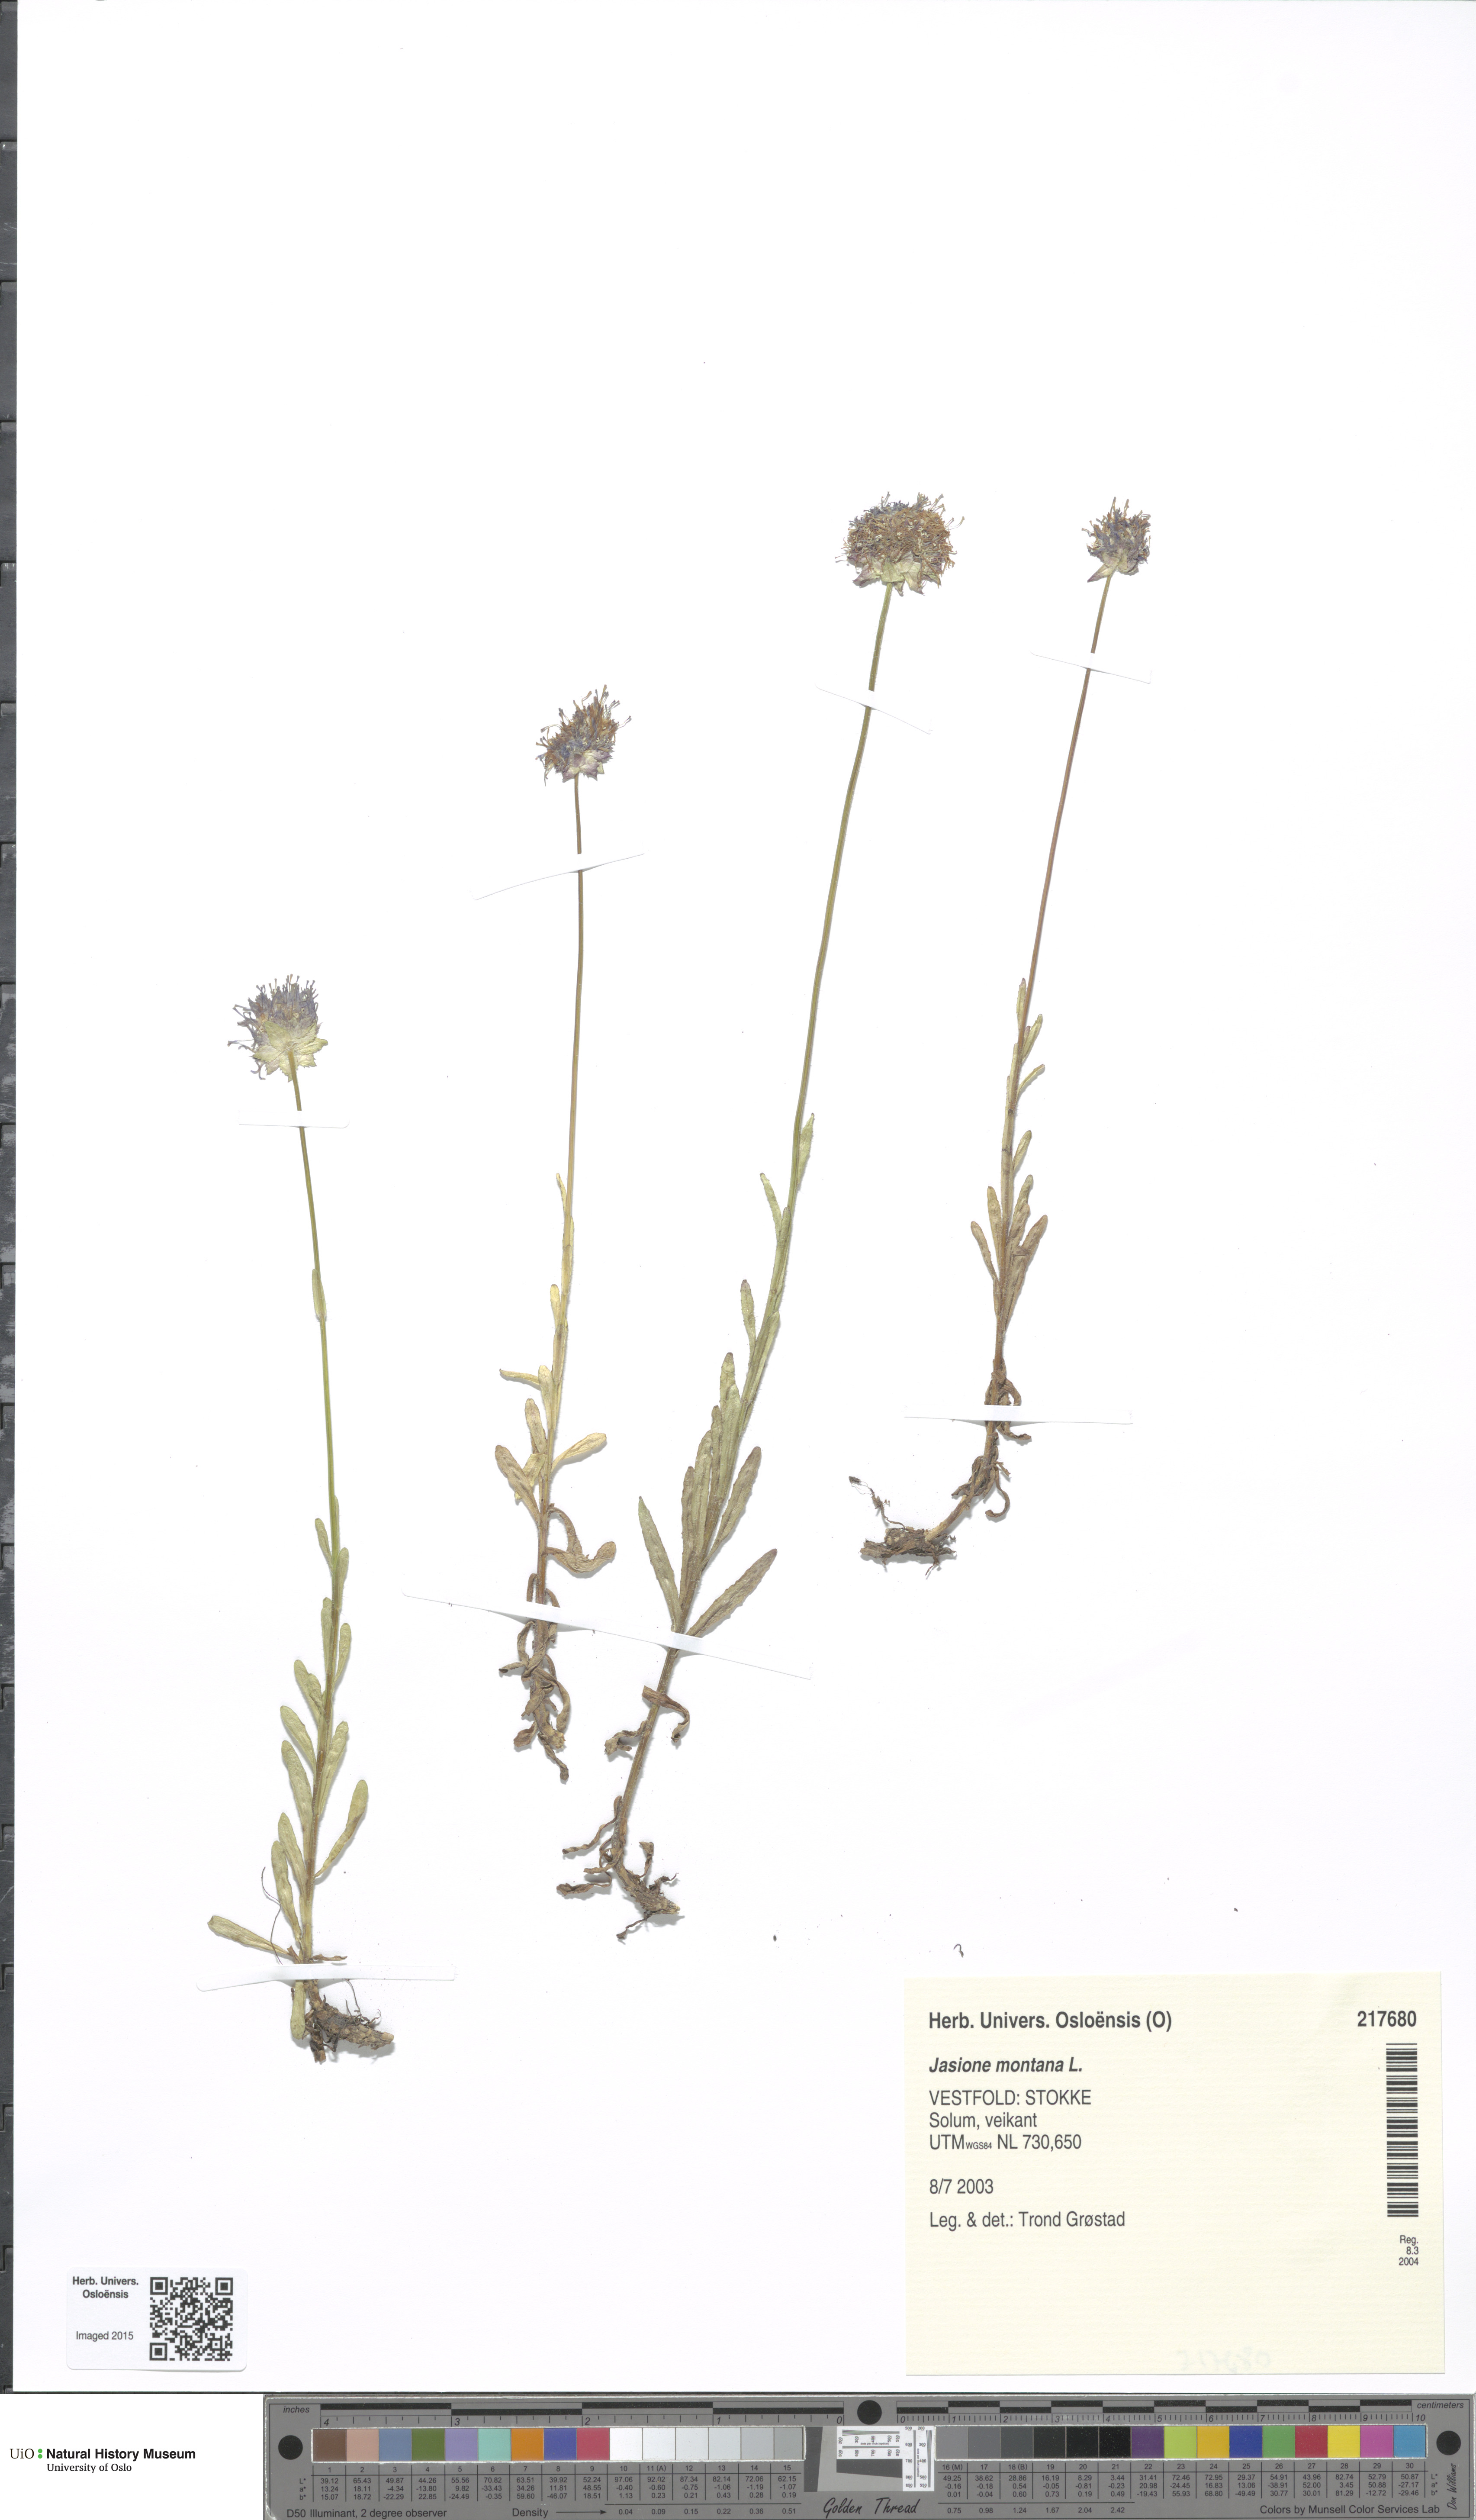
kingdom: Plantae
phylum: Tracheophyta
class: Magnoliopsida
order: Asterales
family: Campanulaceae
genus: Jasione
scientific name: Jasione montana
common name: Sheep's-bit
